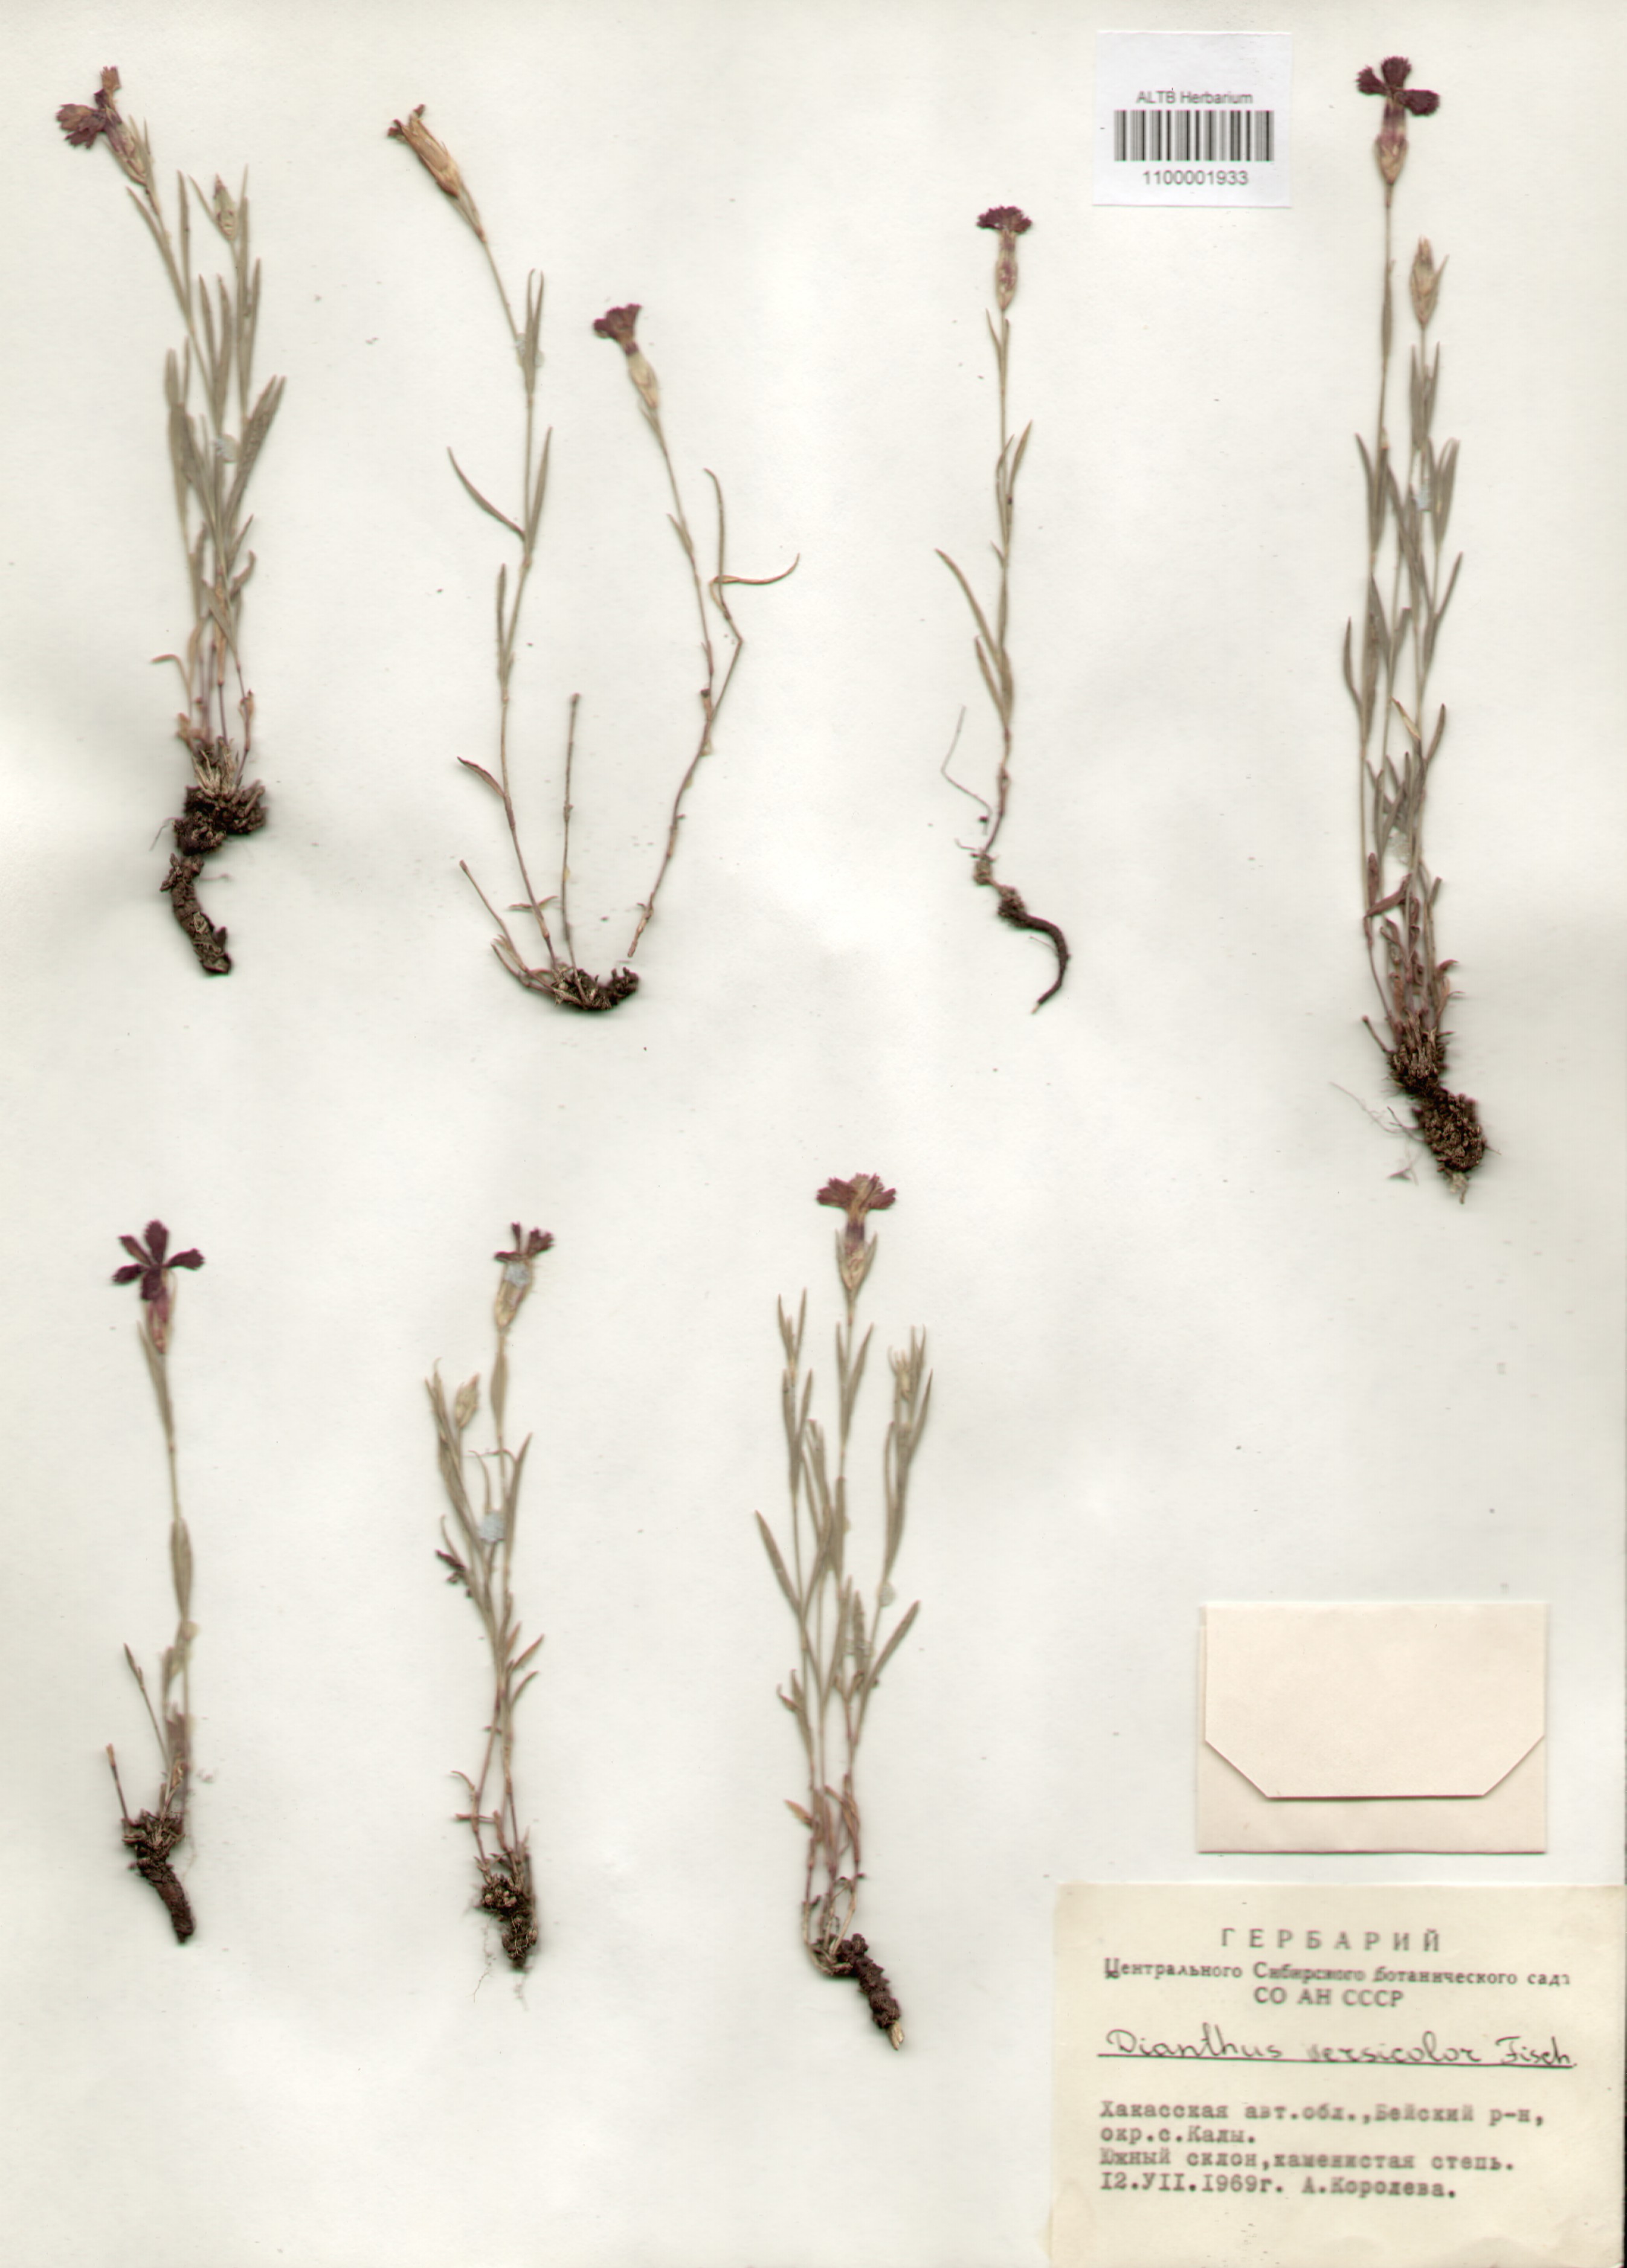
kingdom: Plantae
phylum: Tracheophyta
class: Magnoliopsida
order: Caryophyllales
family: Caryophyllaceae
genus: Dianthus
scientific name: Dianthus chinensis
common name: Rainbow pink
